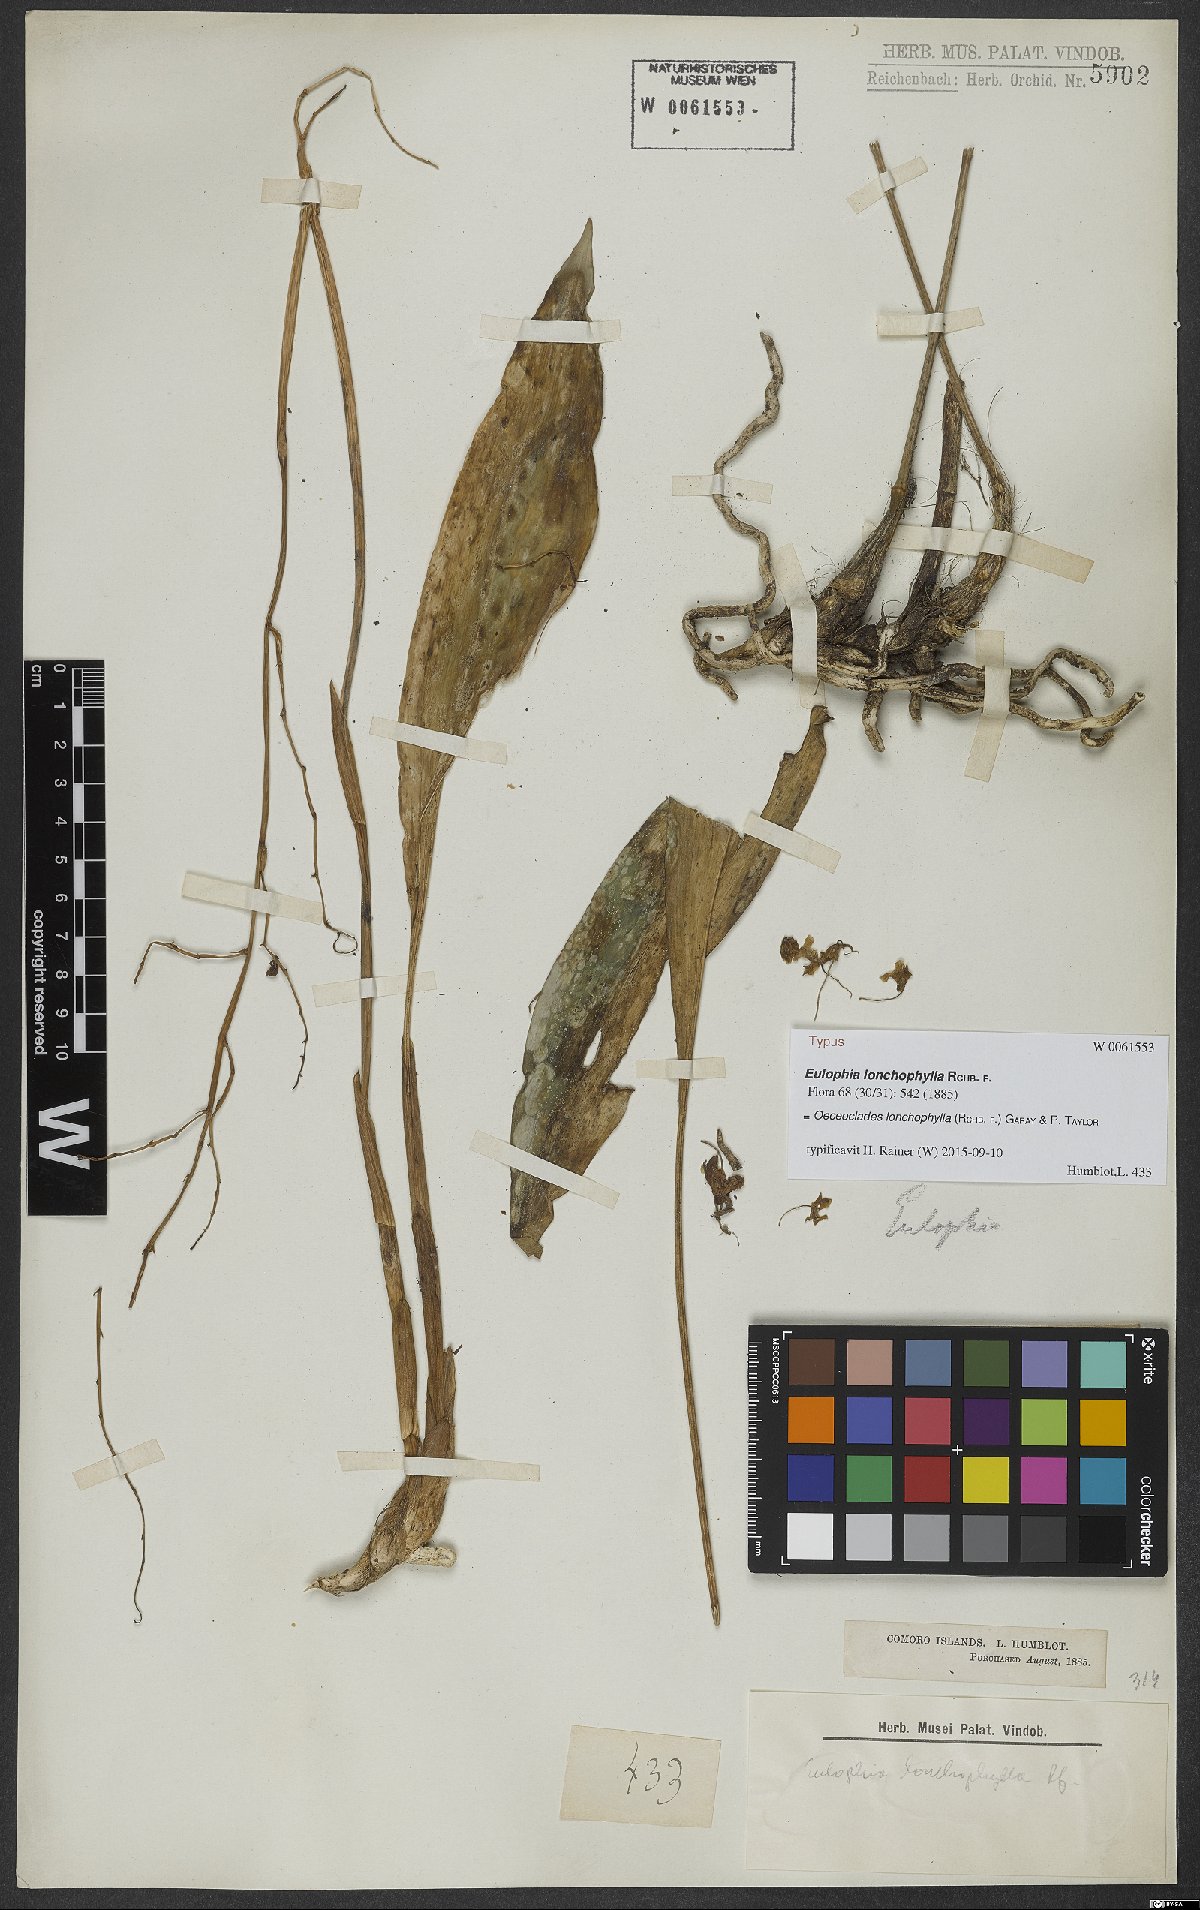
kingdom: Plantae
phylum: Tracheophyta
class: Liliopsida
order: Asparagales
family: Orchidaceae
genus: Eulophia
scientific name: Eulophia lonchophylla
